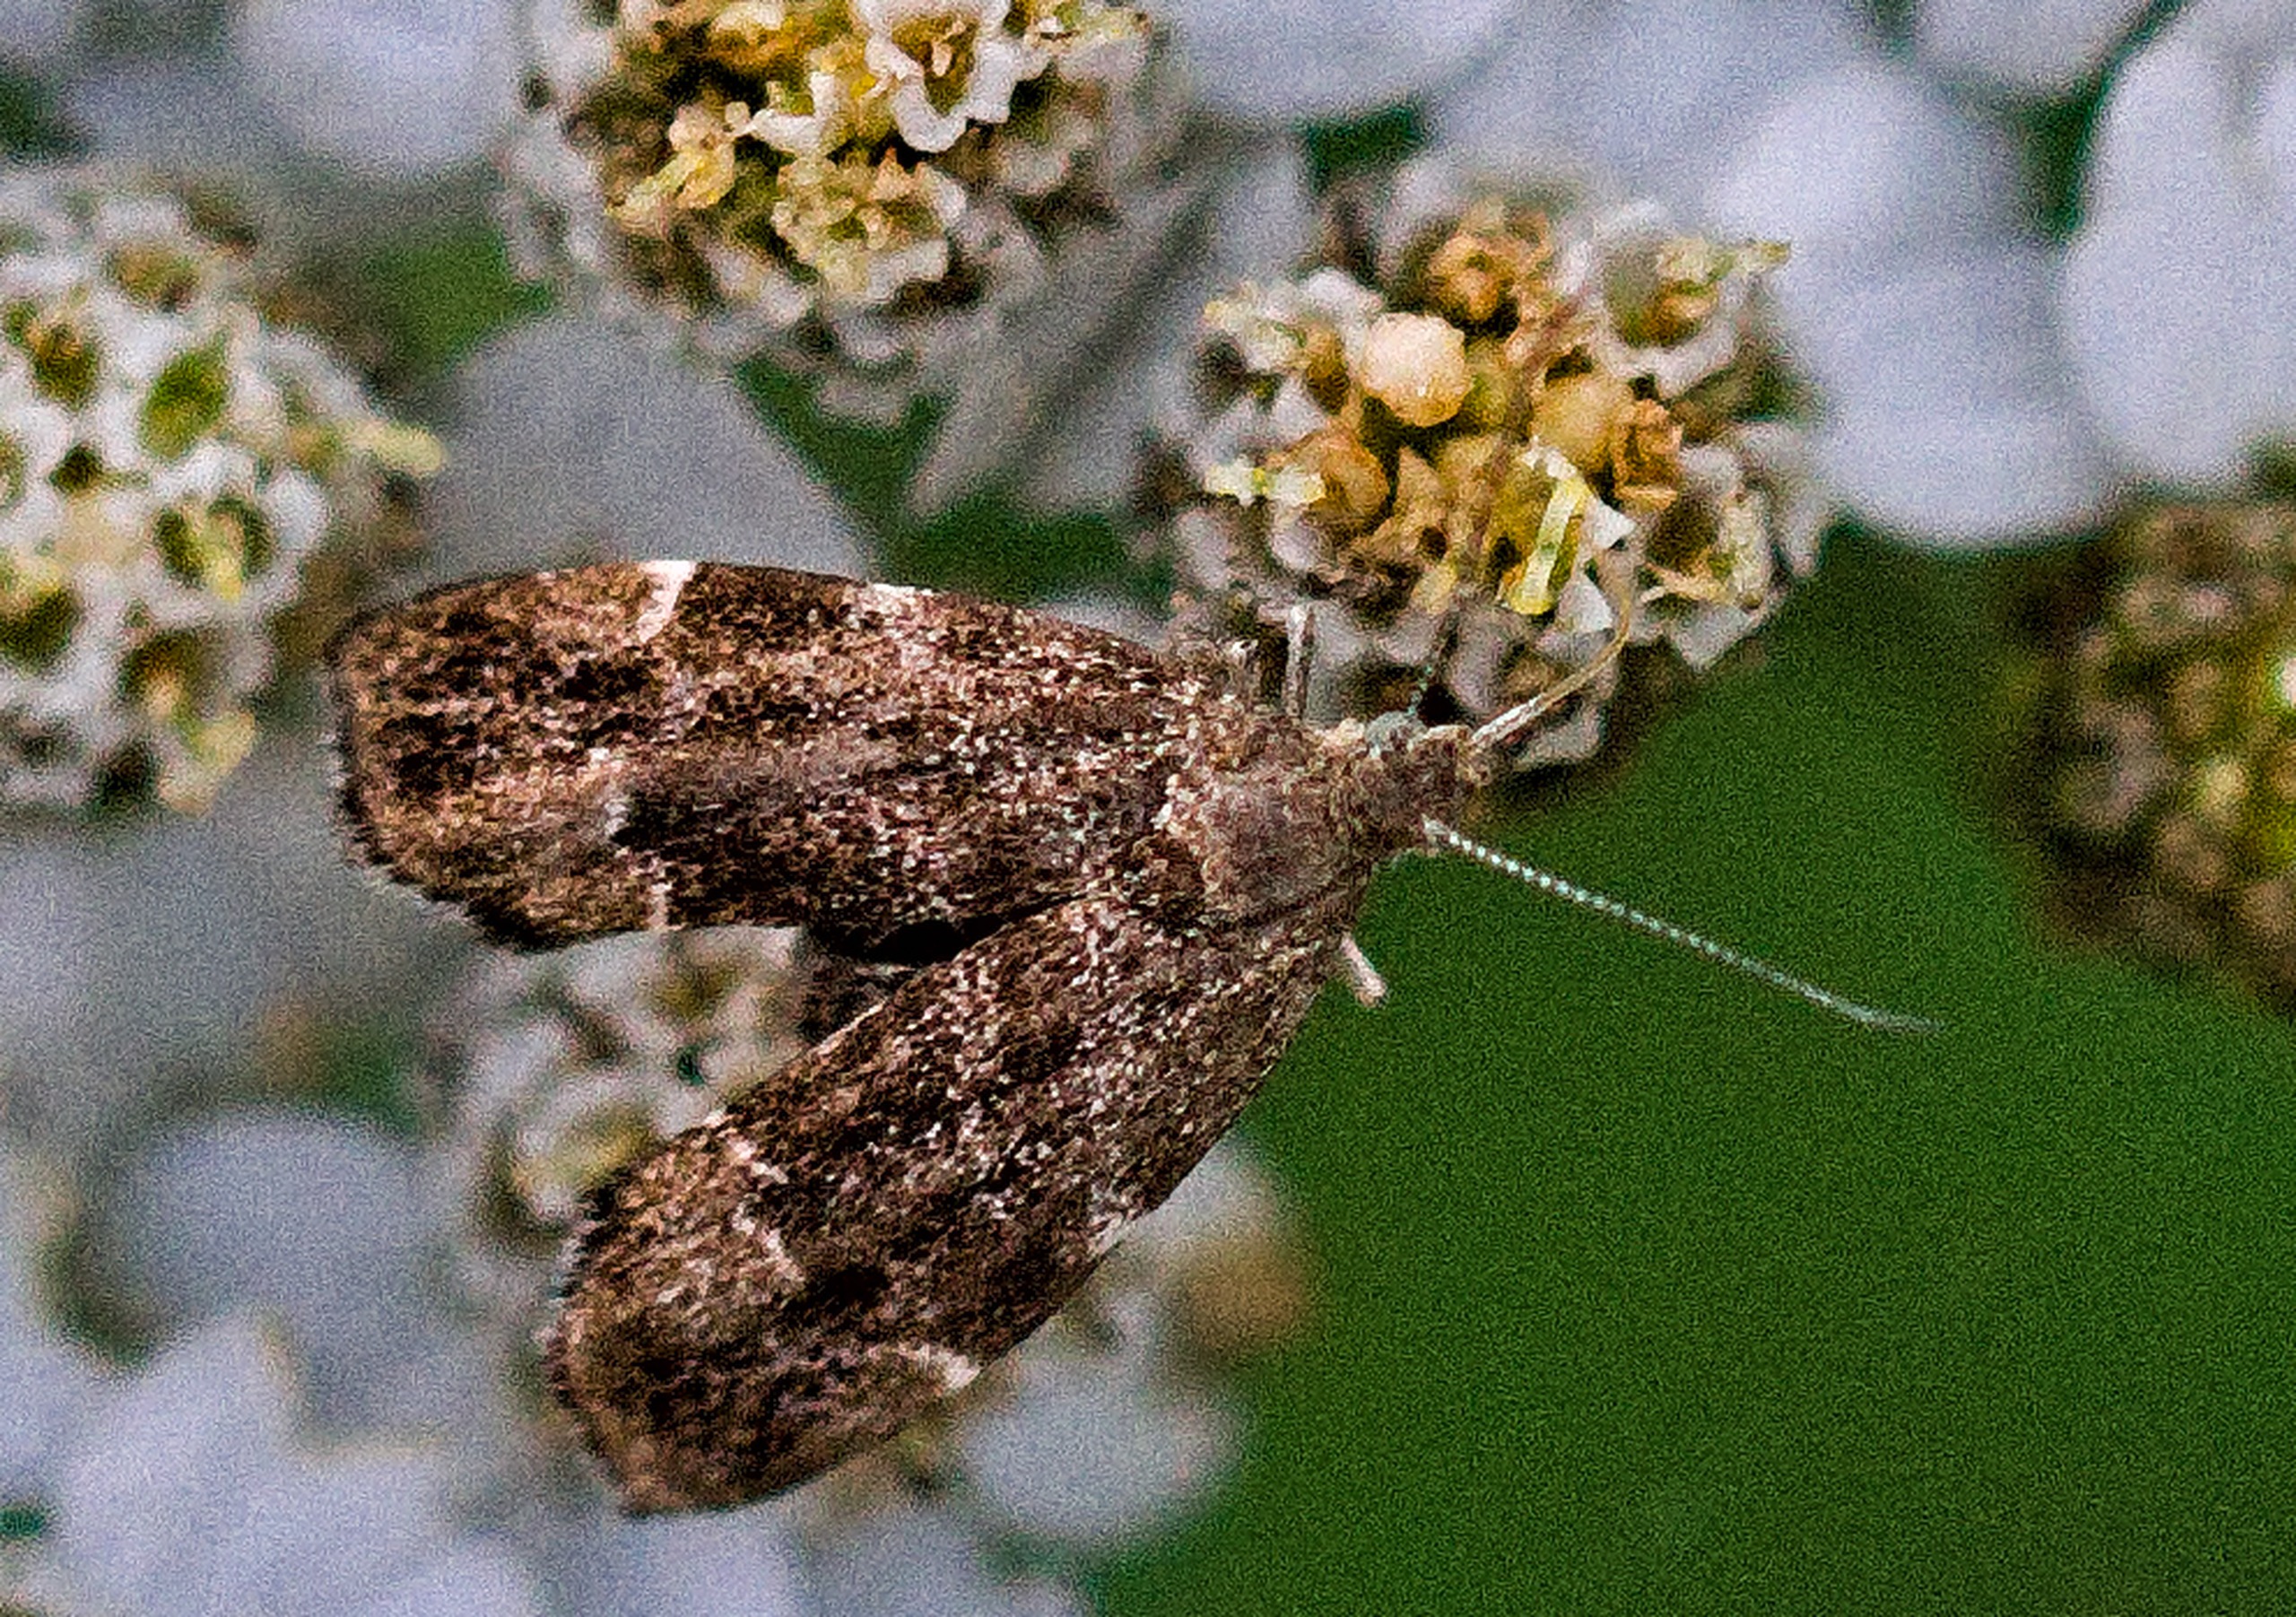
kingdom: Animalia
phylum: Arthropoda
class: Insecta
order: Lepidoptera
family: Choreutidae
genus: Anthophila
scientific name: Anthophila fabriciana
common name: Bredvinget nældevikler
